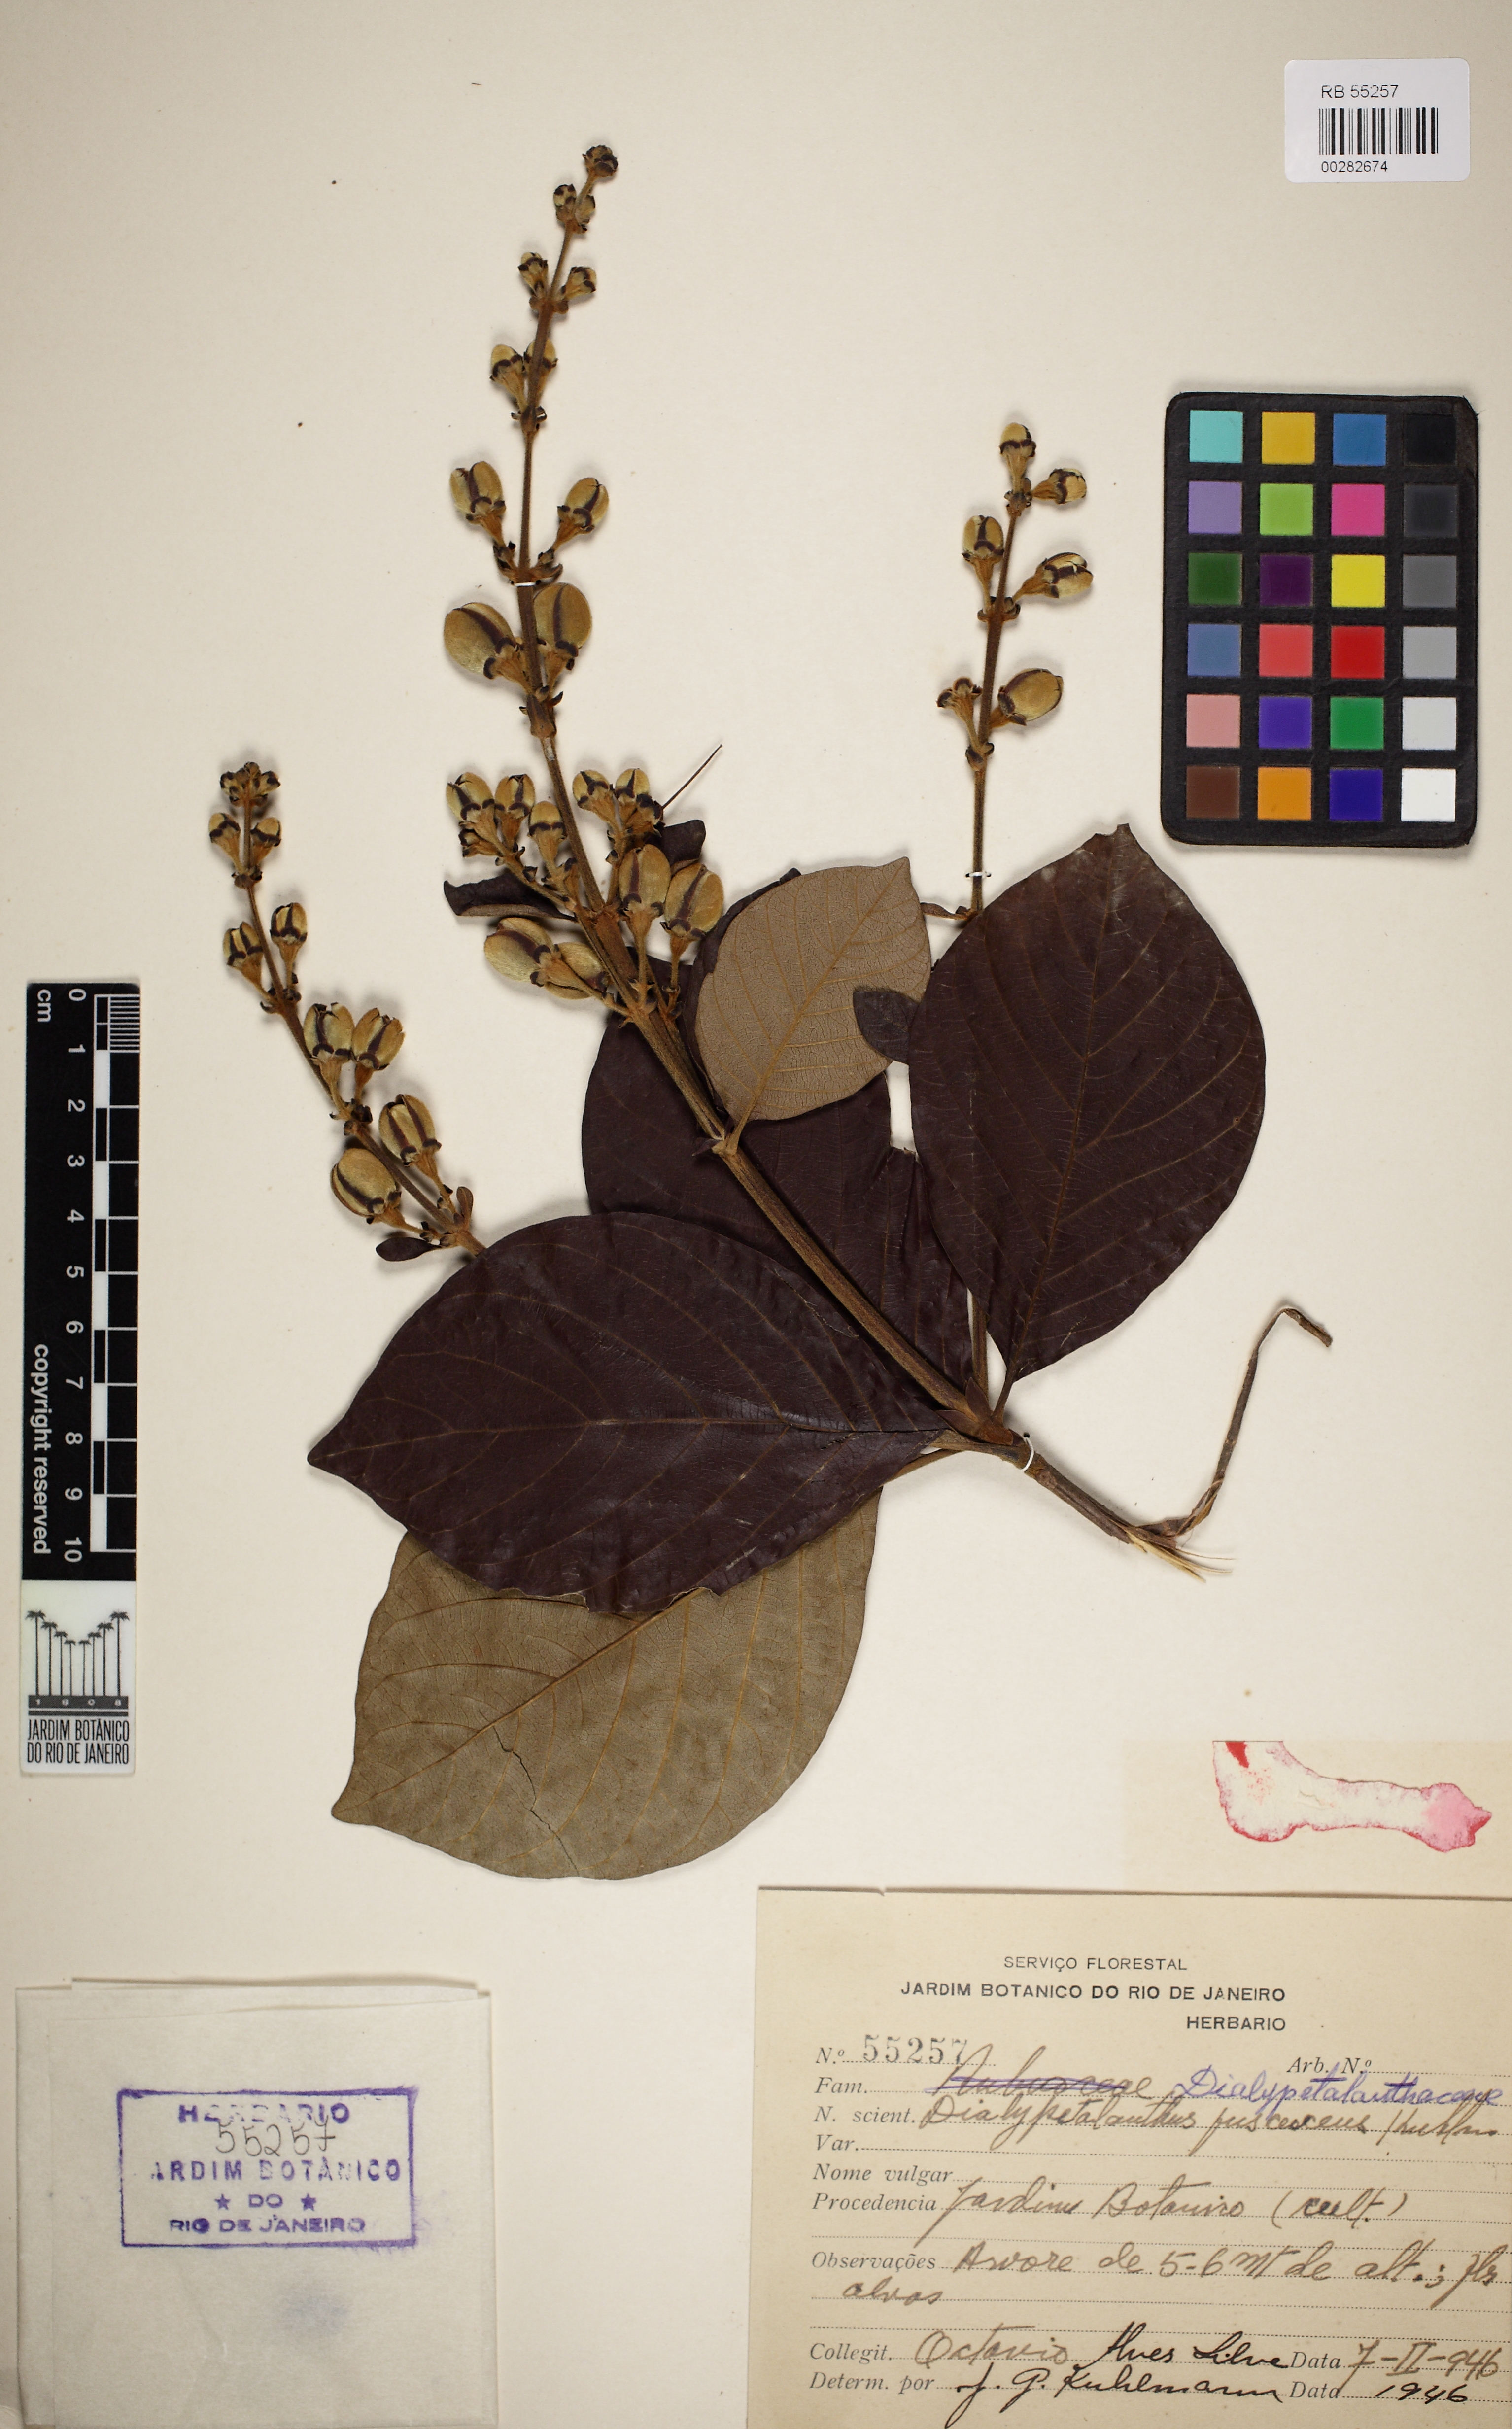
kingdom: Plantae
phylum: Tracheophyta
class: Magnoliopsida
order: Gentianales
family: Rubiaceae
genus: Dialypetalanthus
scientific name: Dialypetalanthus fuscescens
